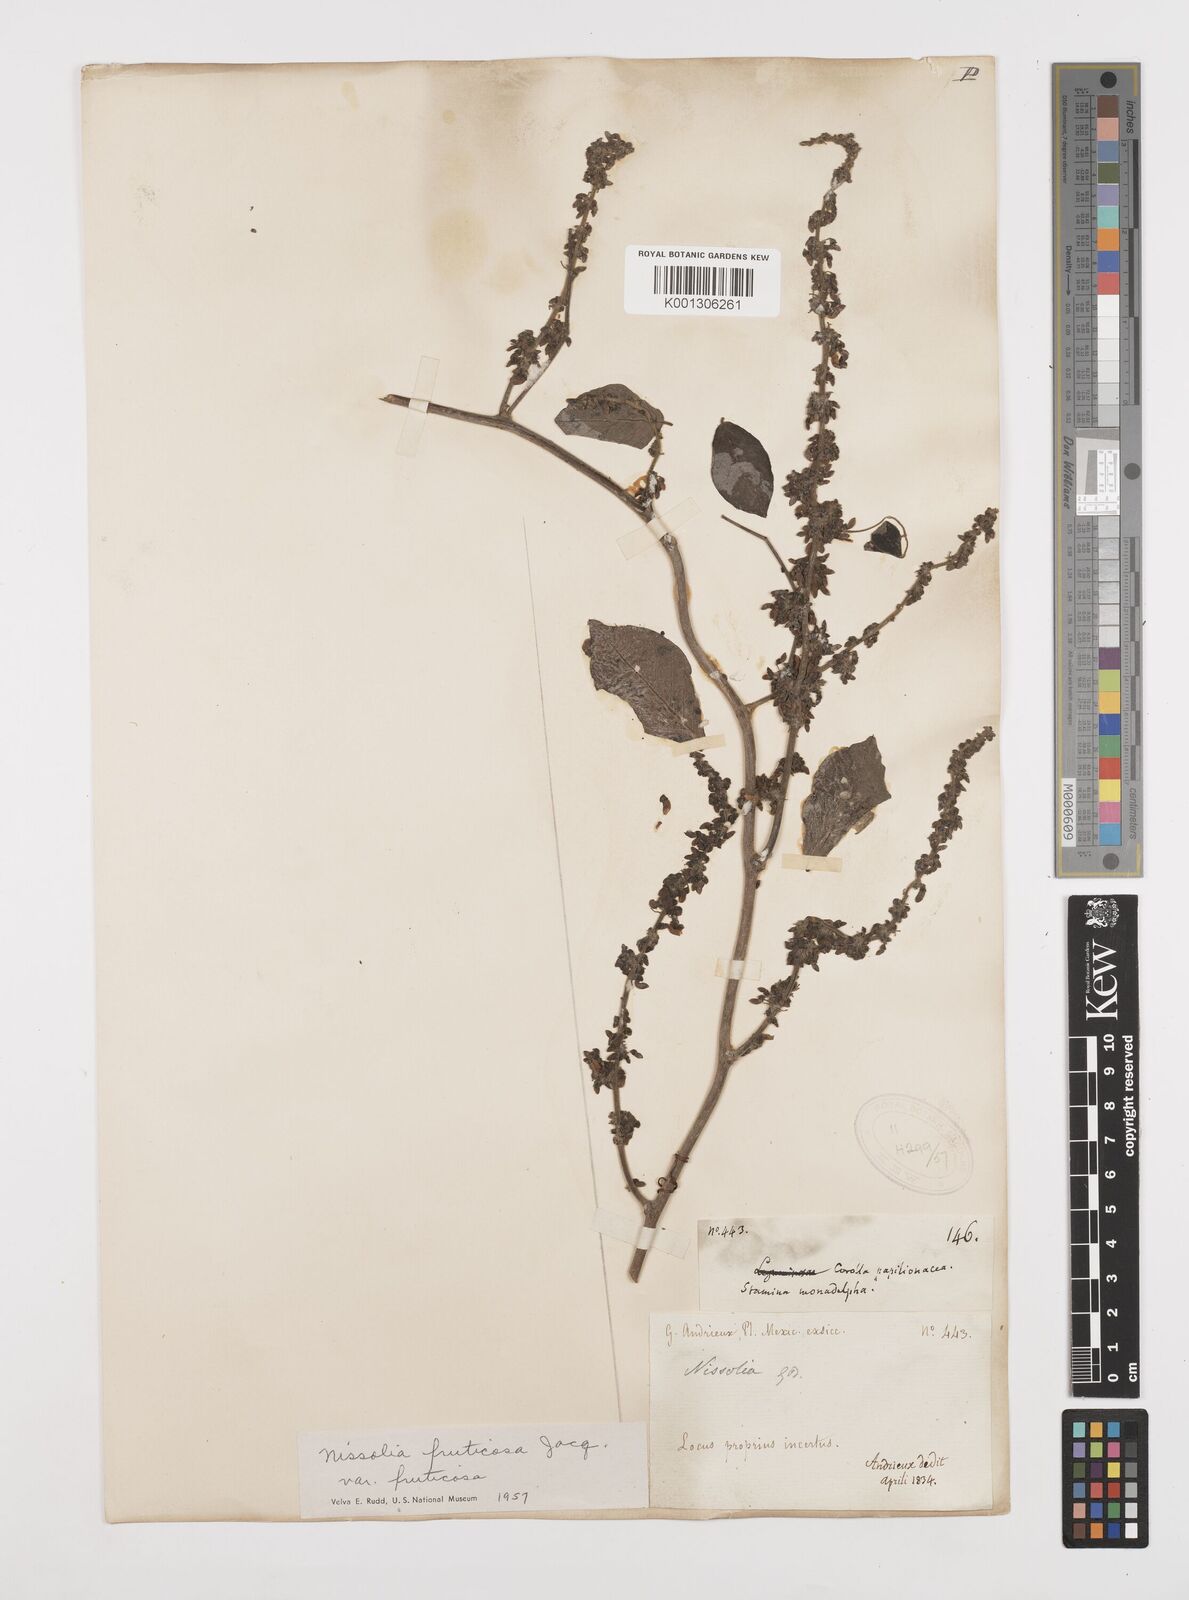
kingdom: Plantae
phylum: Tracheophyta
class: Magnoliopsida
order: Fabales
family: Fabaceae
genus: Nissolia
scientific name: Nissolia fruticosa
